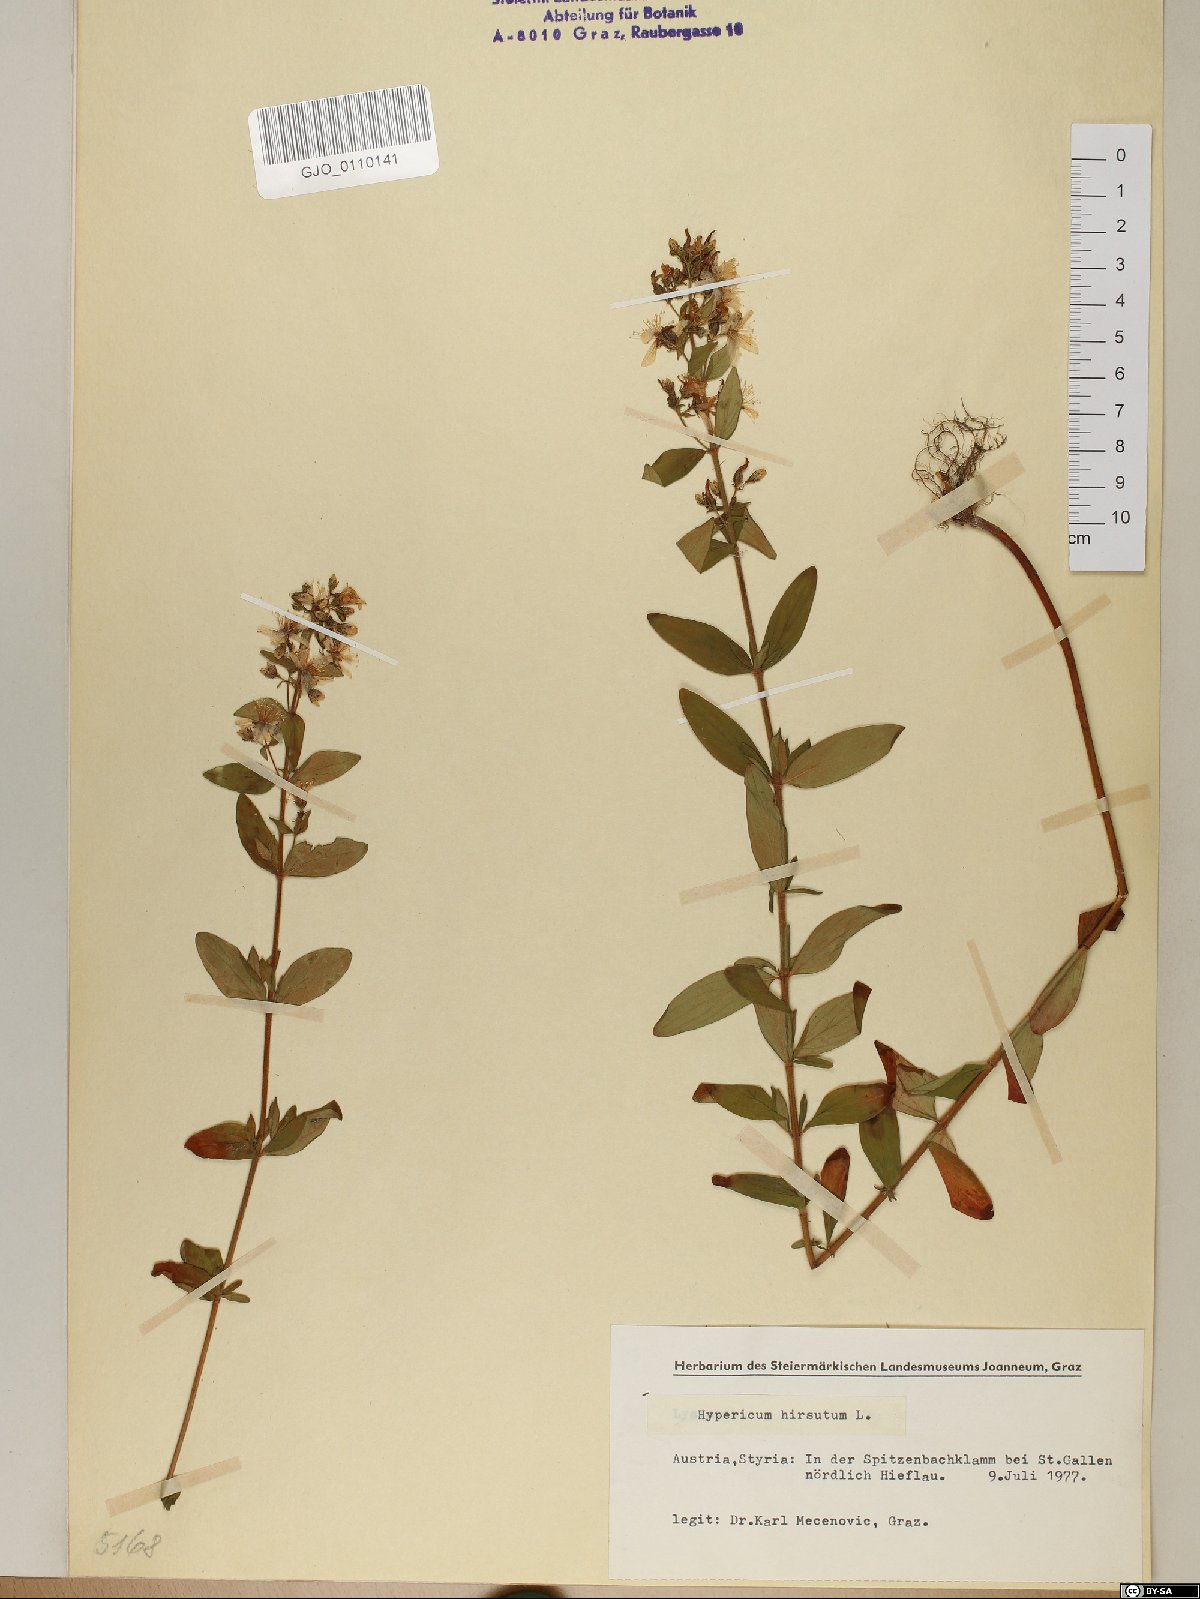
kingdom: Plantae
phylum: Tracheophyta
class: Magnoliopsida
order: Malpighiales
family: Hypericaceae
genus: Hypericum
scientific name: Hypericum hirsutum
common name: Hairy st. john's-wort
